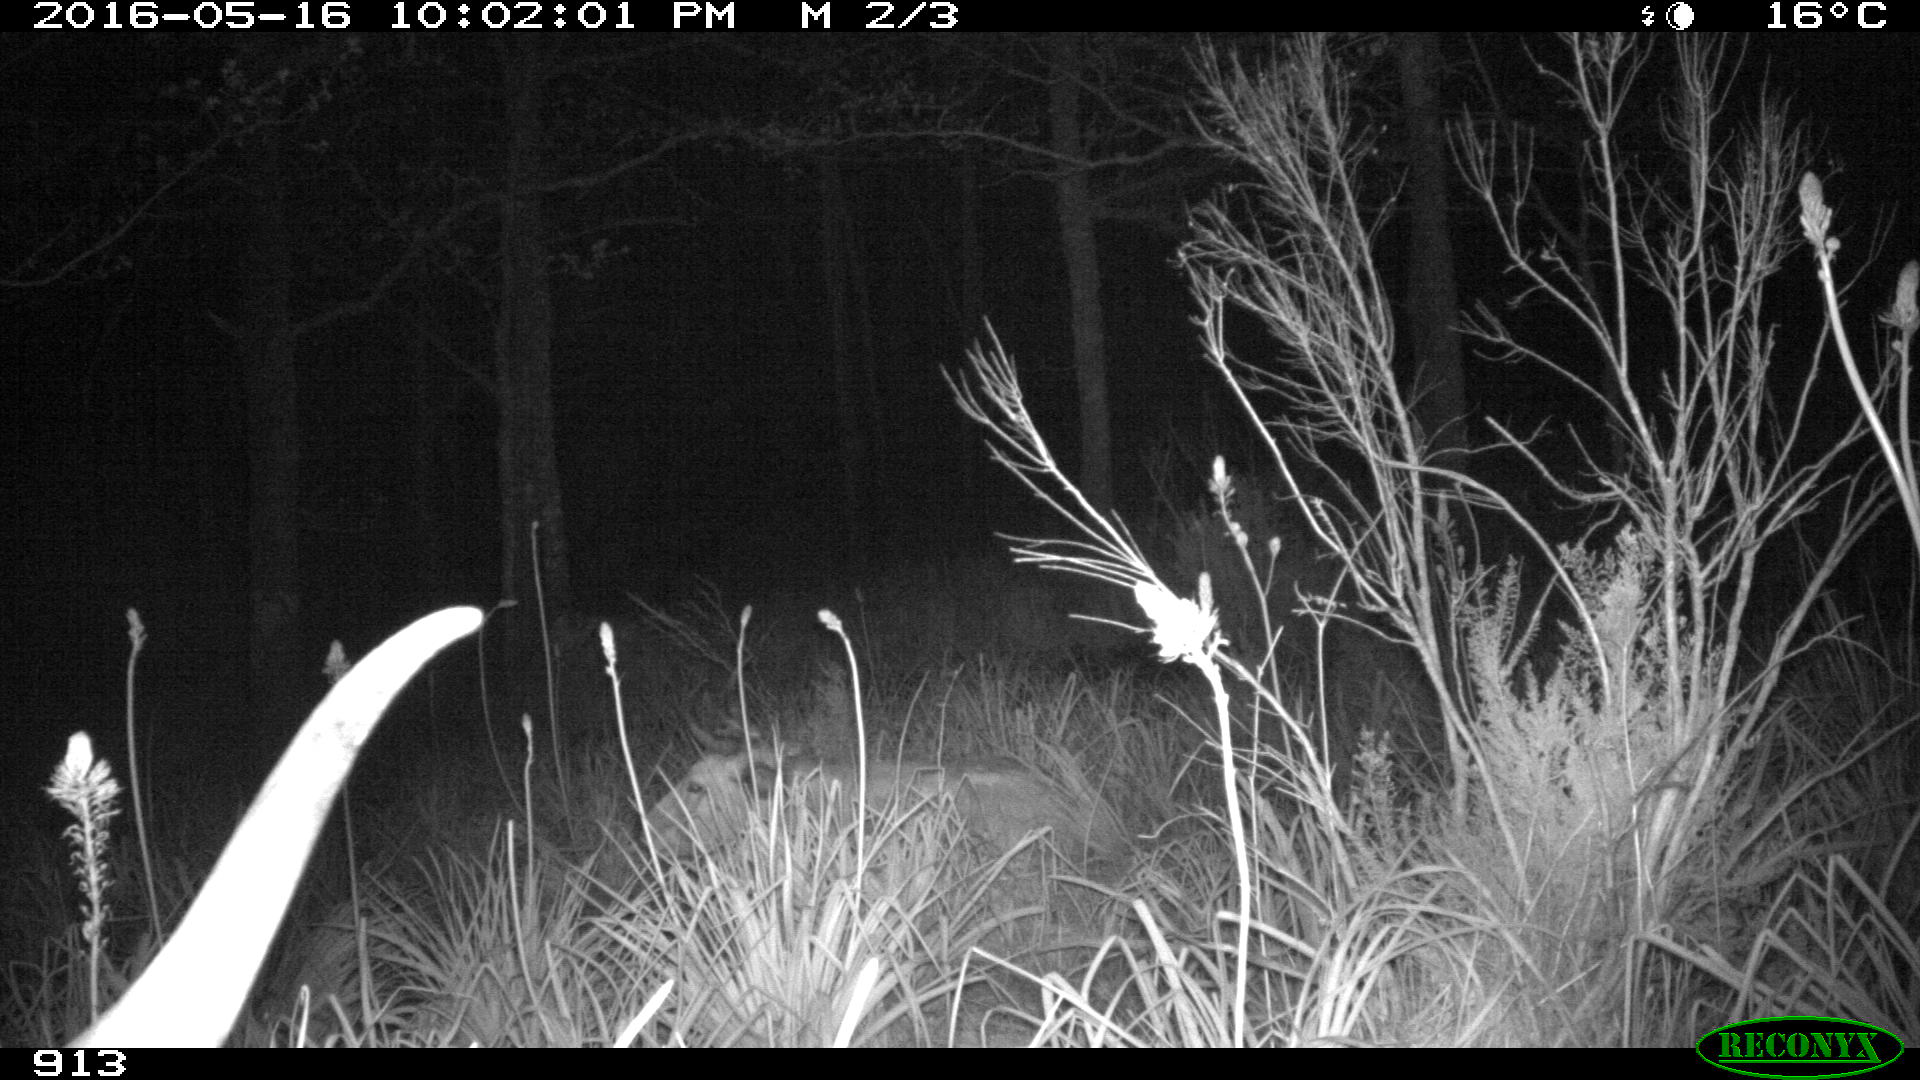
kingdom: Animalia
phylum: Chordata
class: Mammalia
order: Artiodactyla
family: Bovidae
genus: Bos
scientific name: Bos taurus
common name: Domesticated cattle
